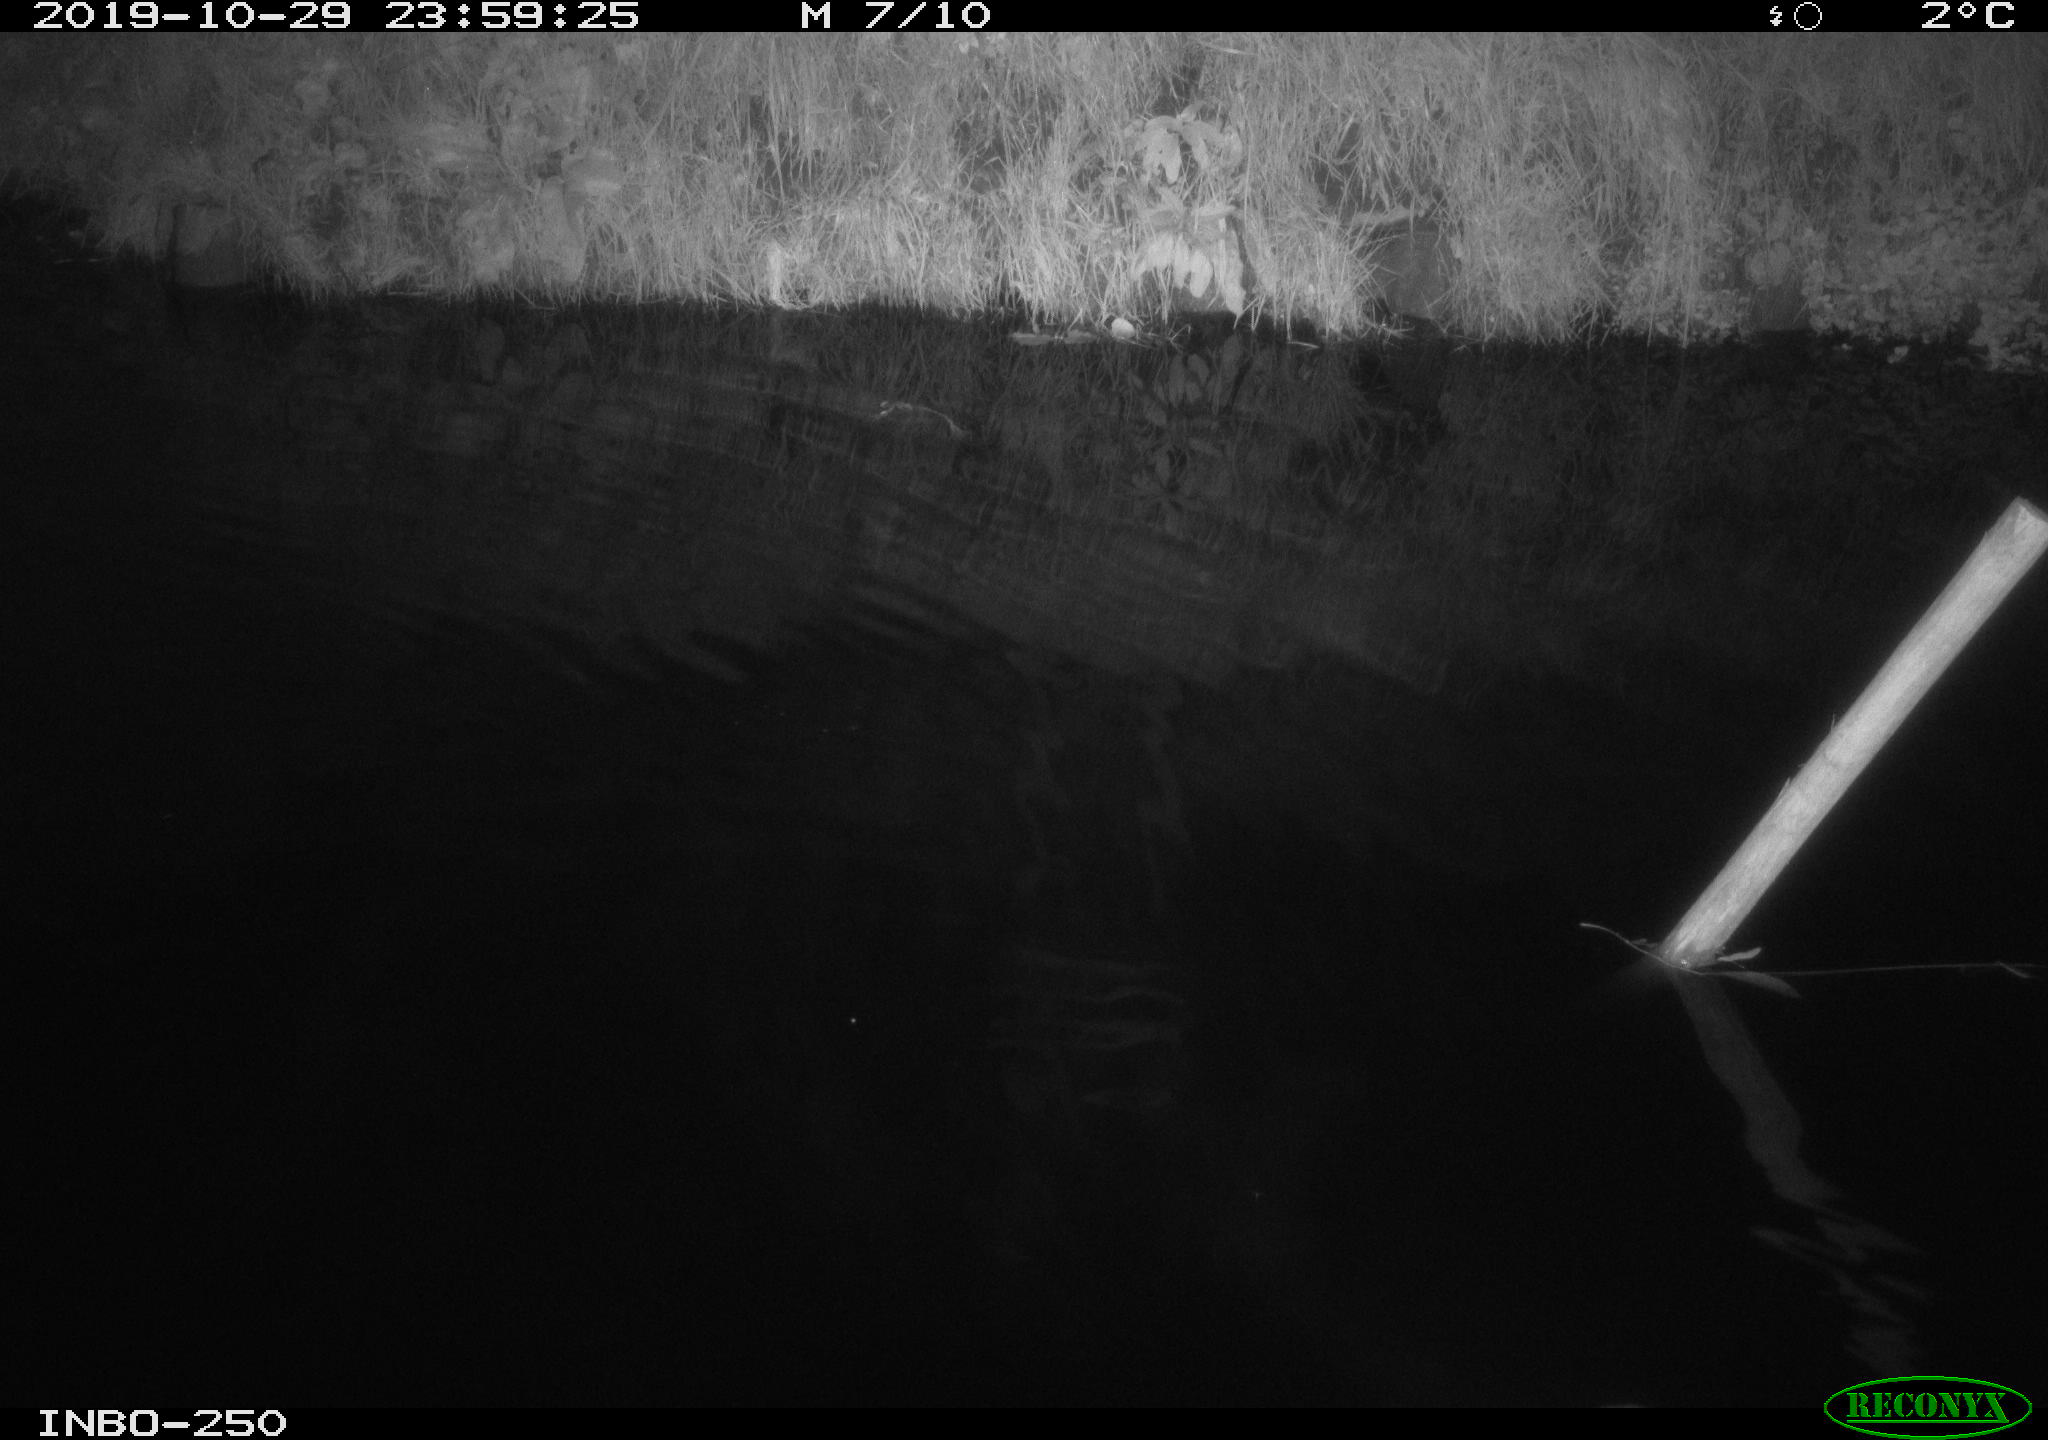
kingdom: Animalia
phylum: Chordata
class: Aves
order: Anseriformes
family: Anatidae
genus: Anas
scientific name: Anas platyrhynchos
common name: Mallard
